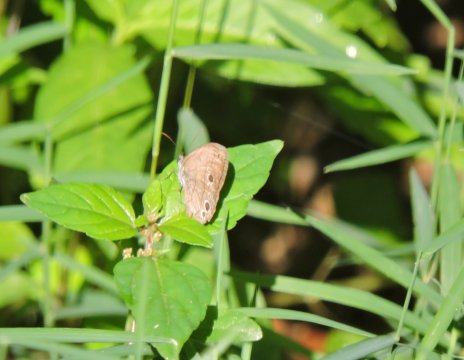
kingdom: Animalia
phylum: Arthropoda
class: Insecta
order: Lepidoptera
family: Nymphalidae
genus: Hermeuptychia
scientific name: Hermeuptychia
